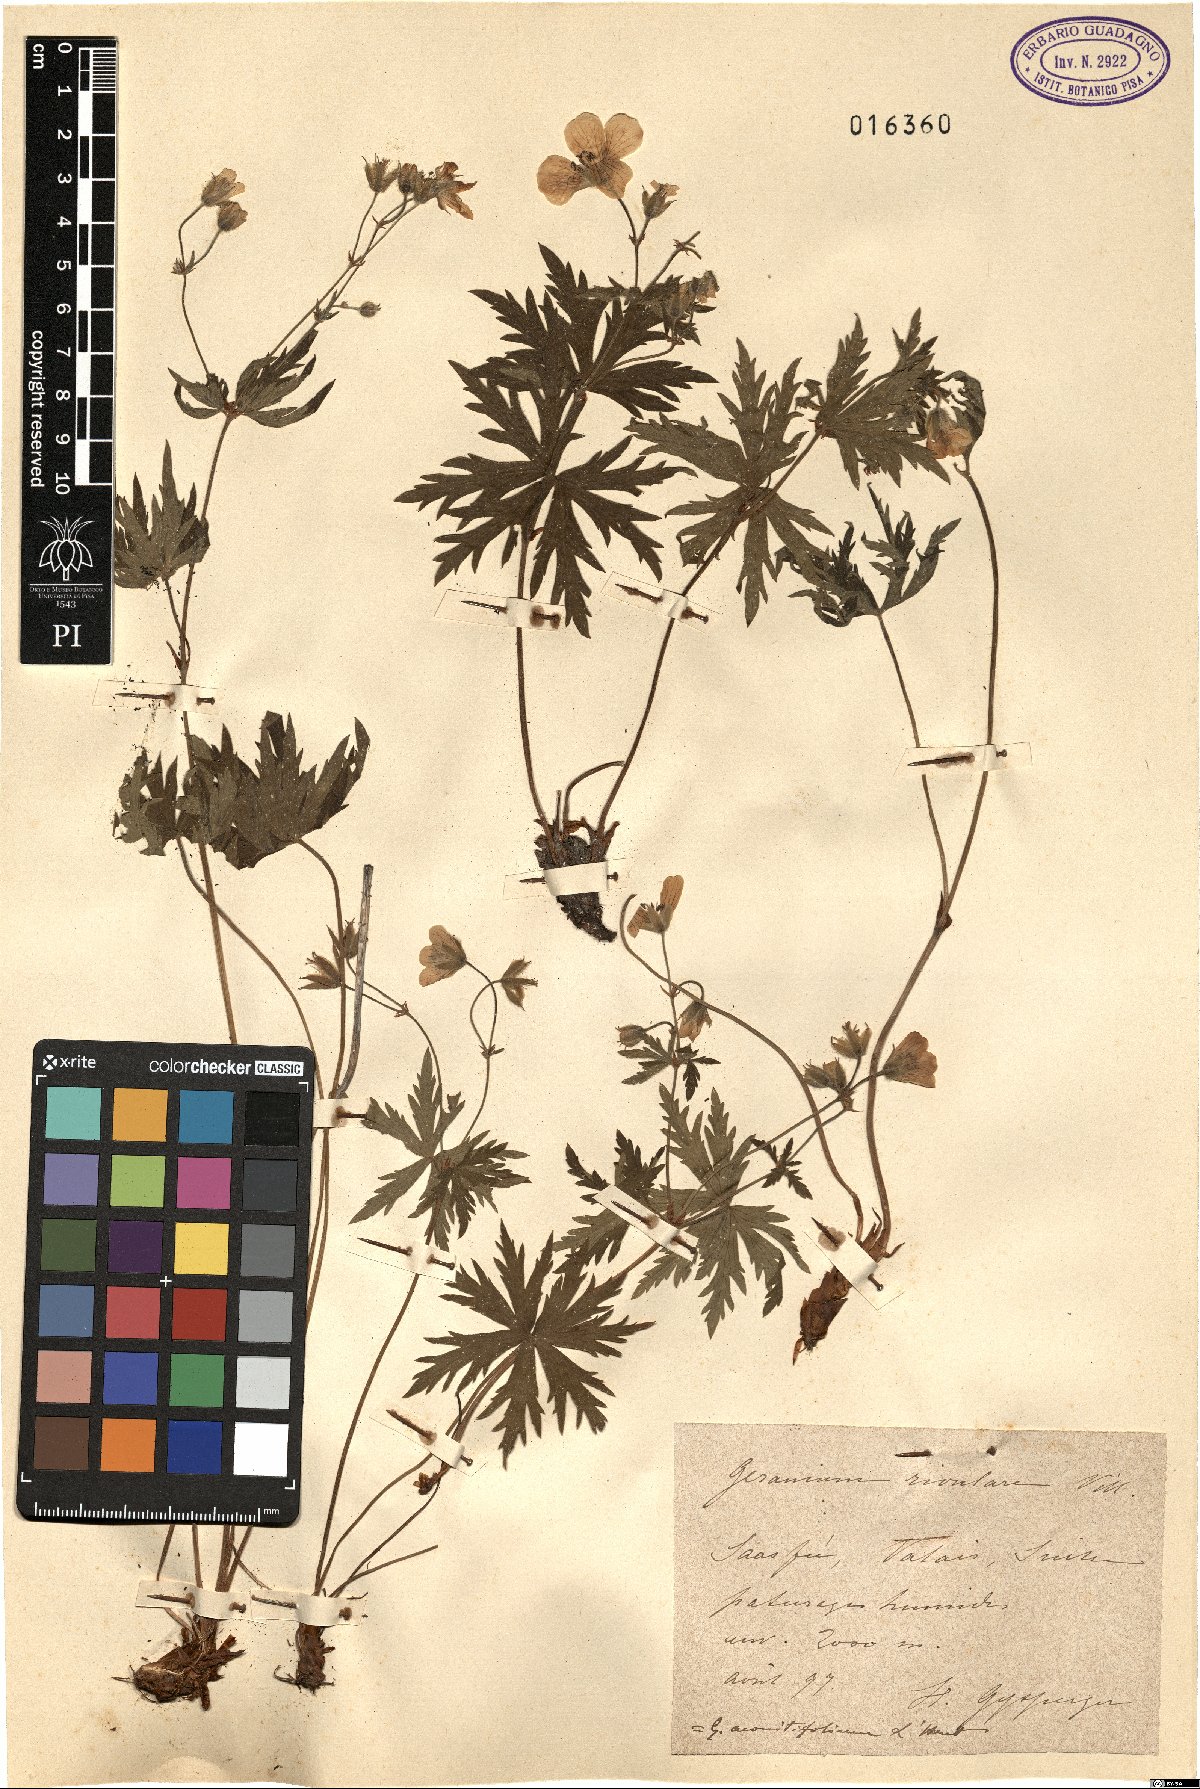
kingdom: Plantae
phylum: Tracheophyta
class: Magnoliopsida
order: Geraniales
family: Geraniaceae
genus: Geranium
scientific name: Geranium aconitifolium
